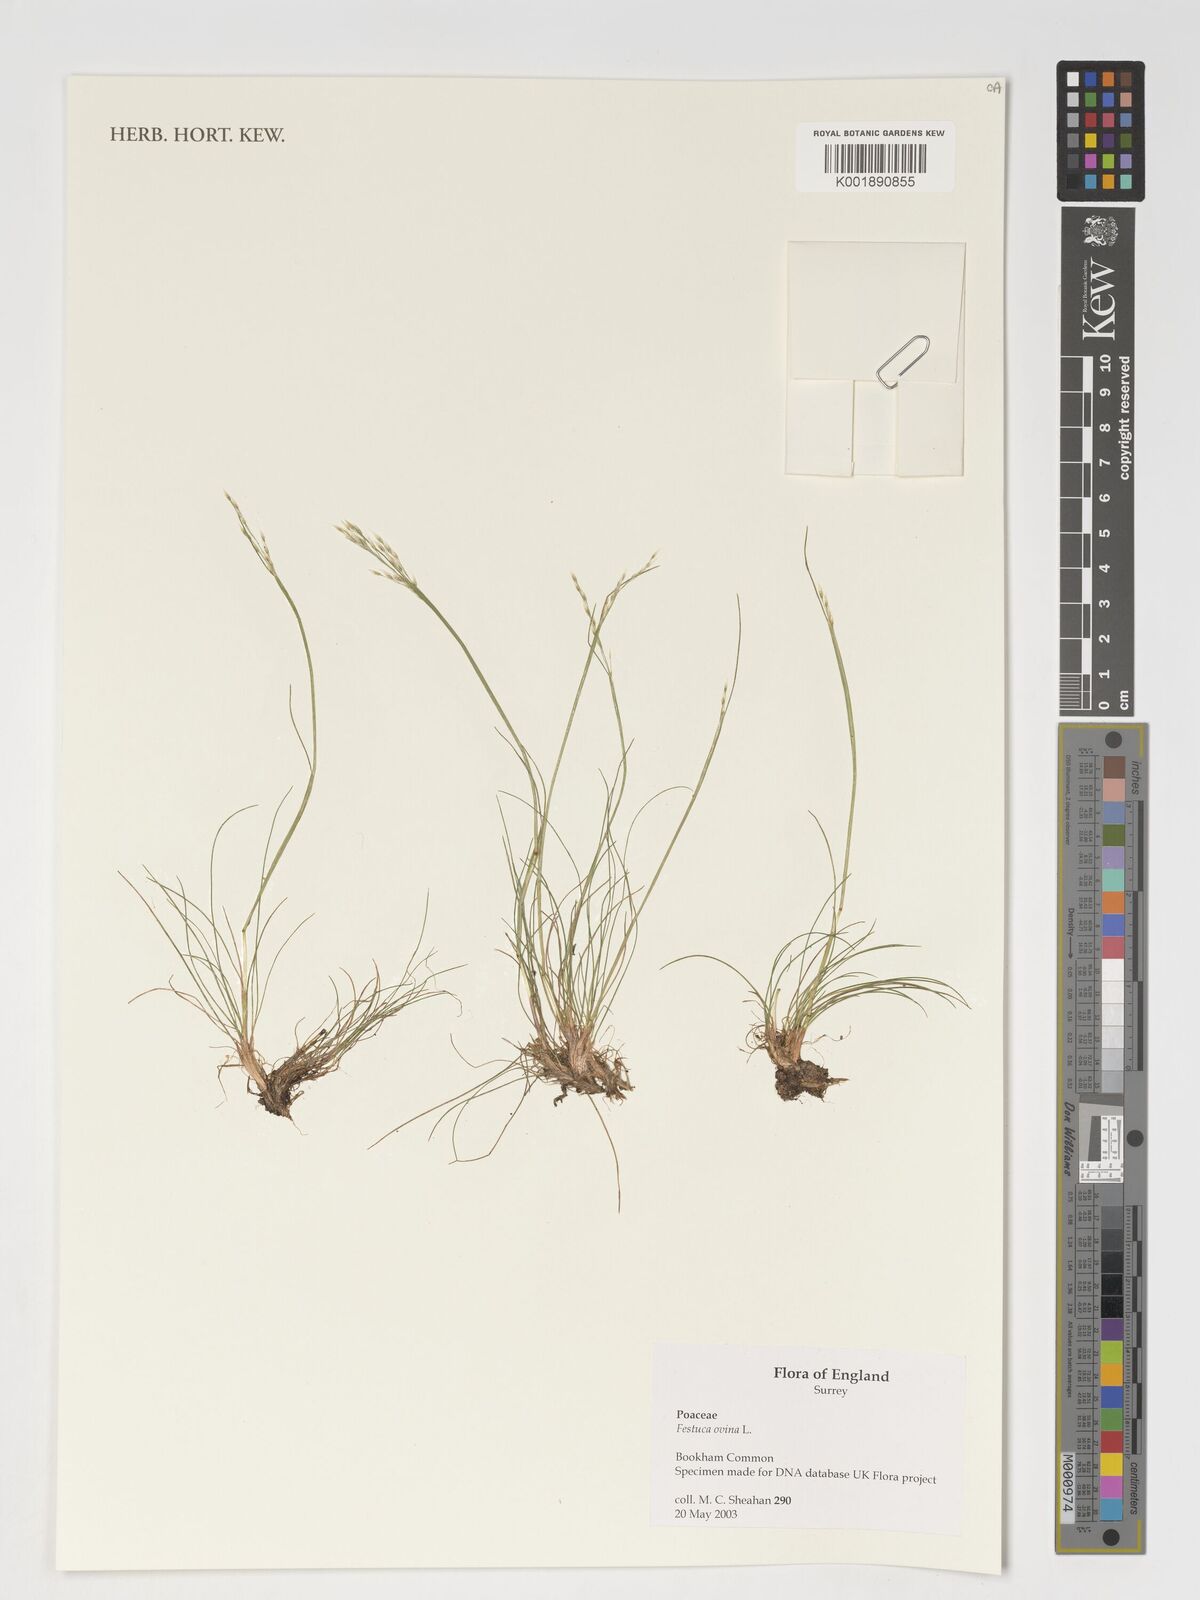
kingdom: Plantae
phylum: Tracheophyta
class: Liliopsida
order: Poales
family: Poaceae
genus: Festuca
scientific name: Festuca ovina
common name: Sheep fescue
